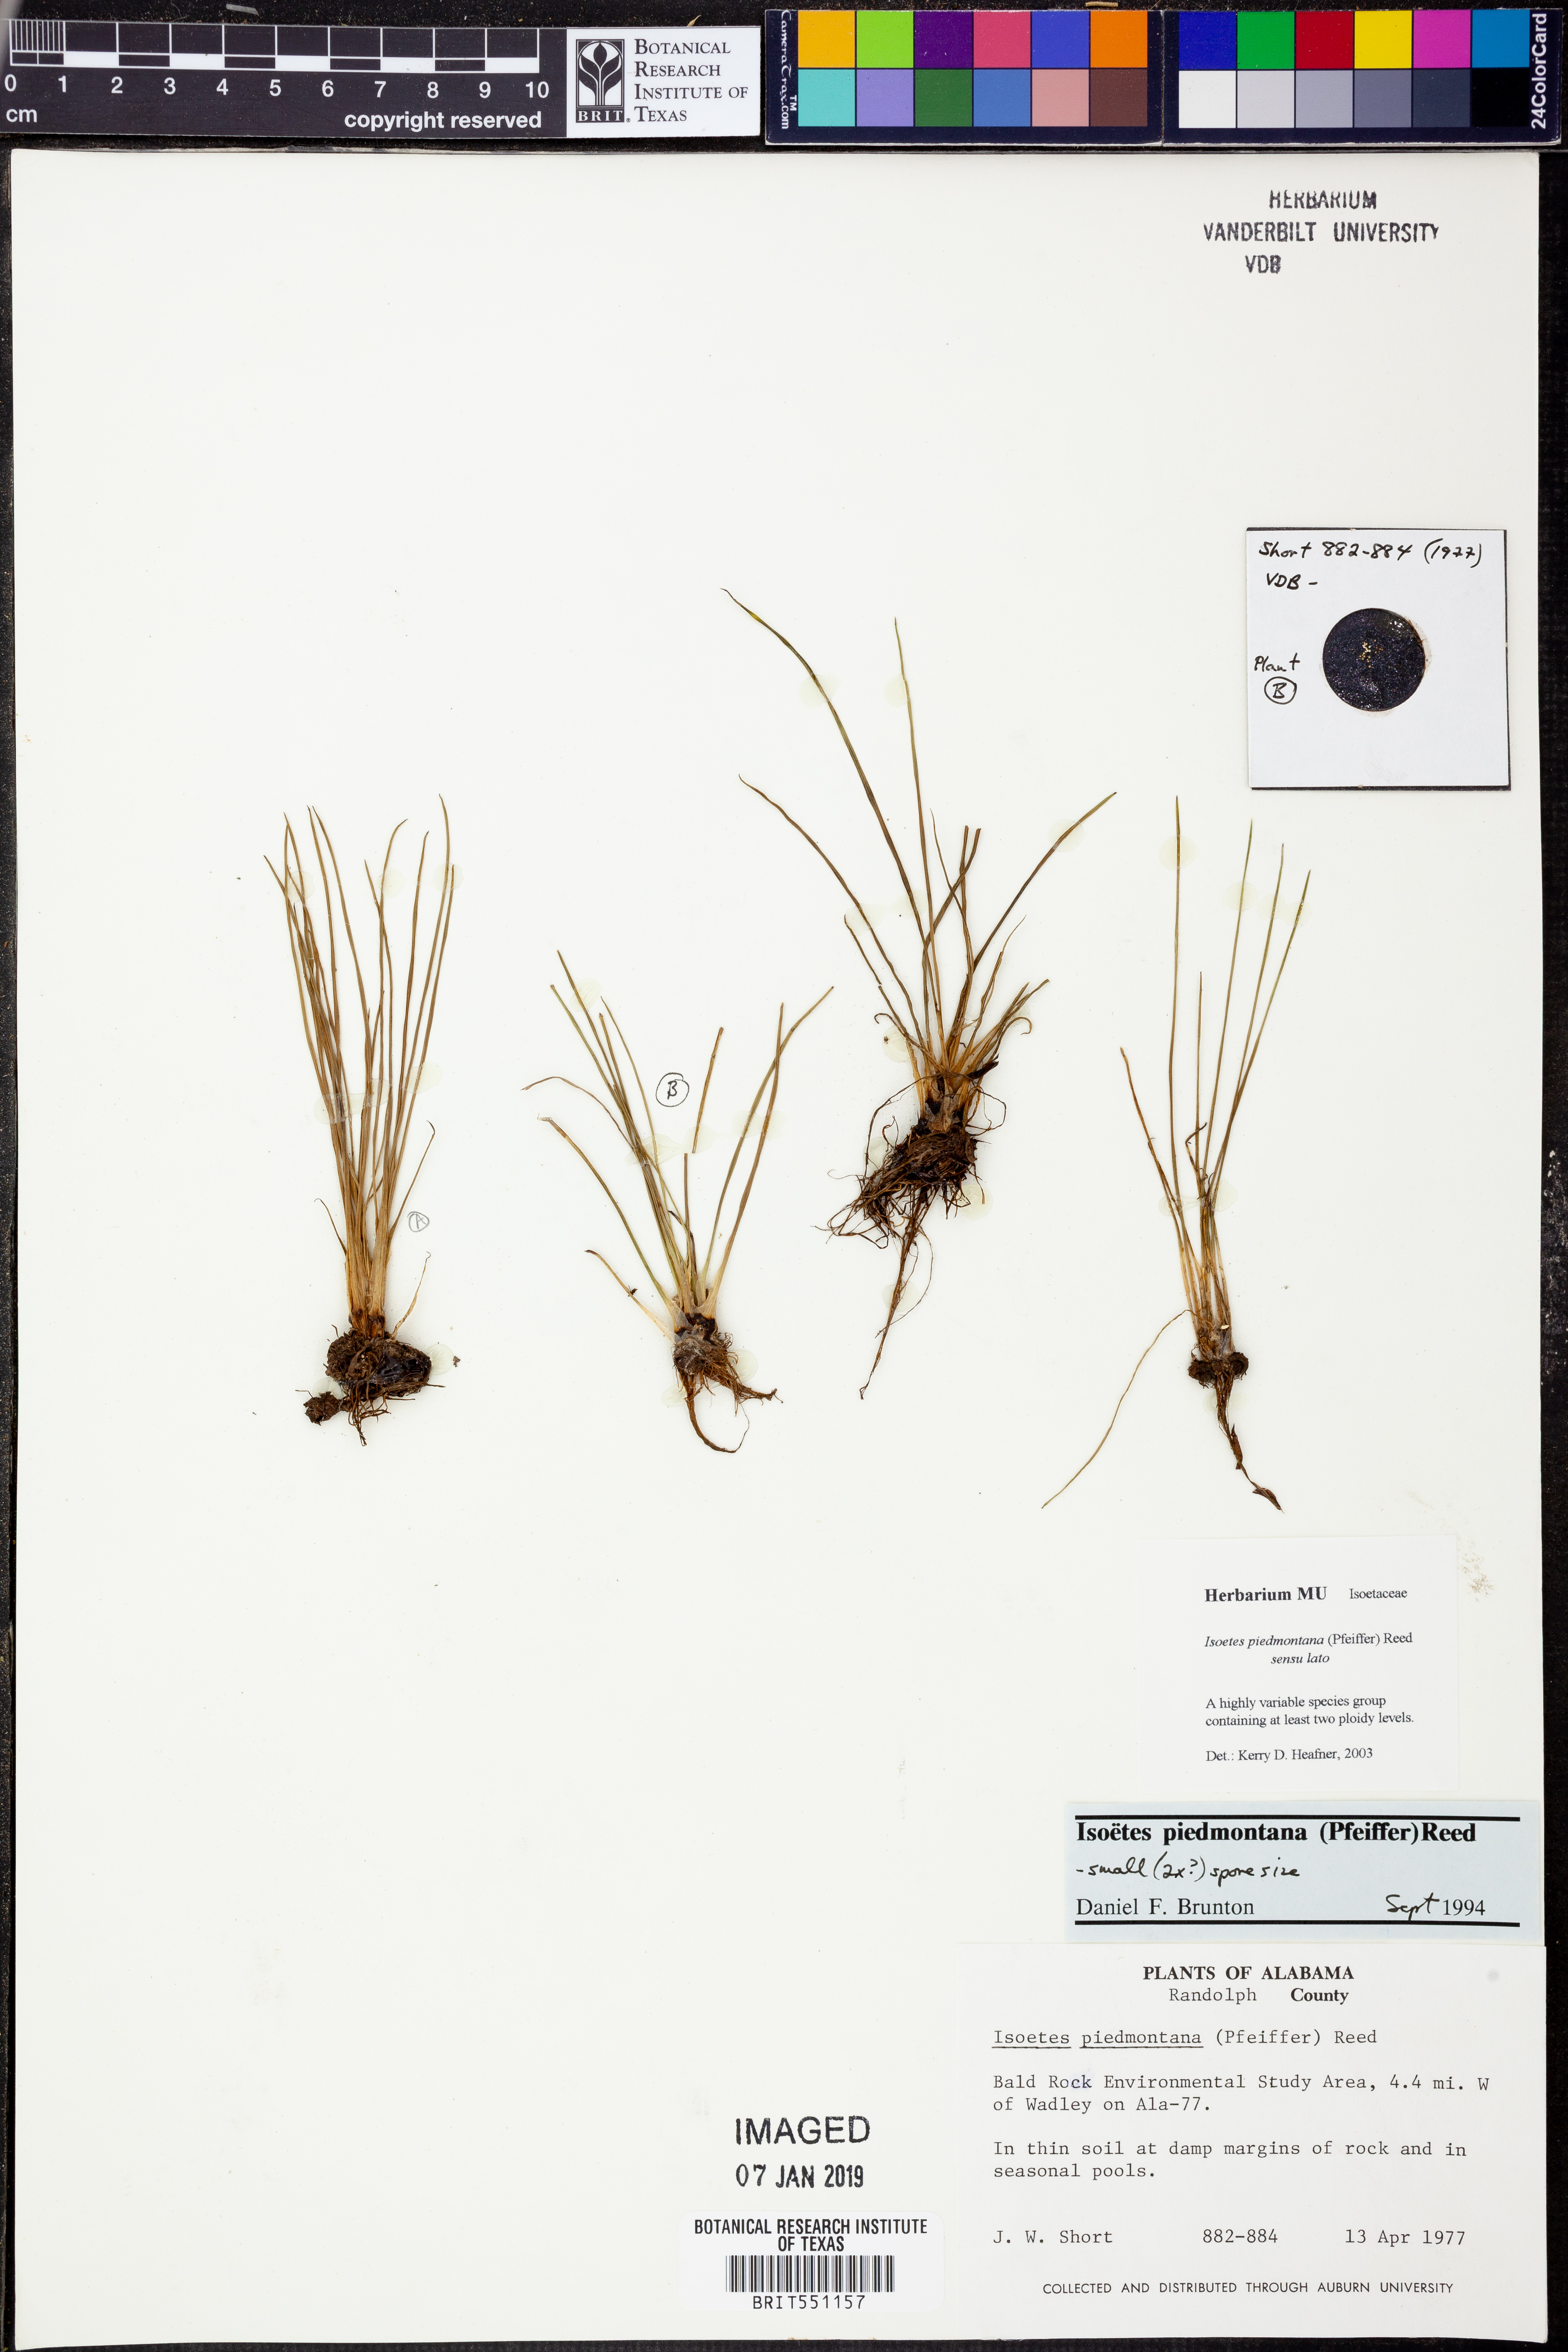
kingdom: Plantae
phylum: Tracheophyta
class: Lycopodiopsida
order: Isoetales
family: Isoetaceae
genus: Isoetes
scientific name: Isoetes virginica
